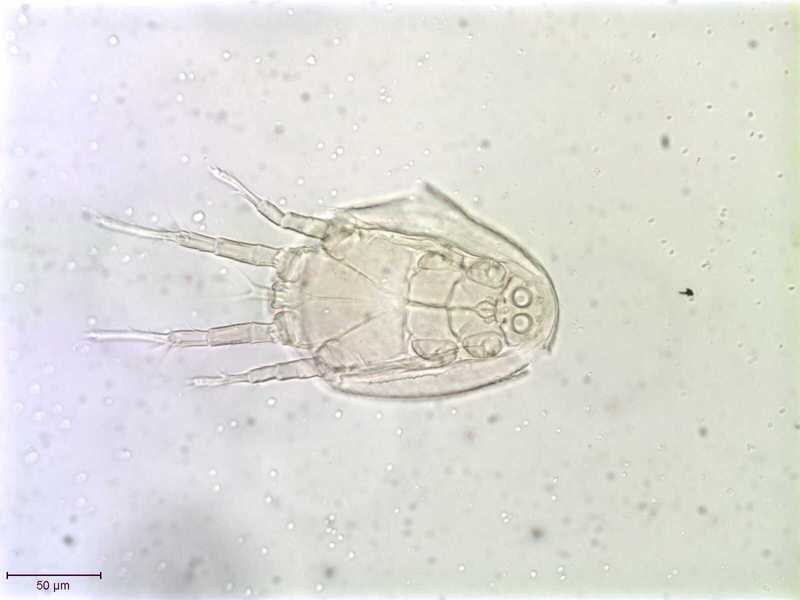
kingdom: Animalia
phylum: Arthropoda
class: Arachnida
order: Sarcoptiformes
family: Histiostomatidae
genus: Capronomoia
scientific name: Capronomoia sphaerocerae
